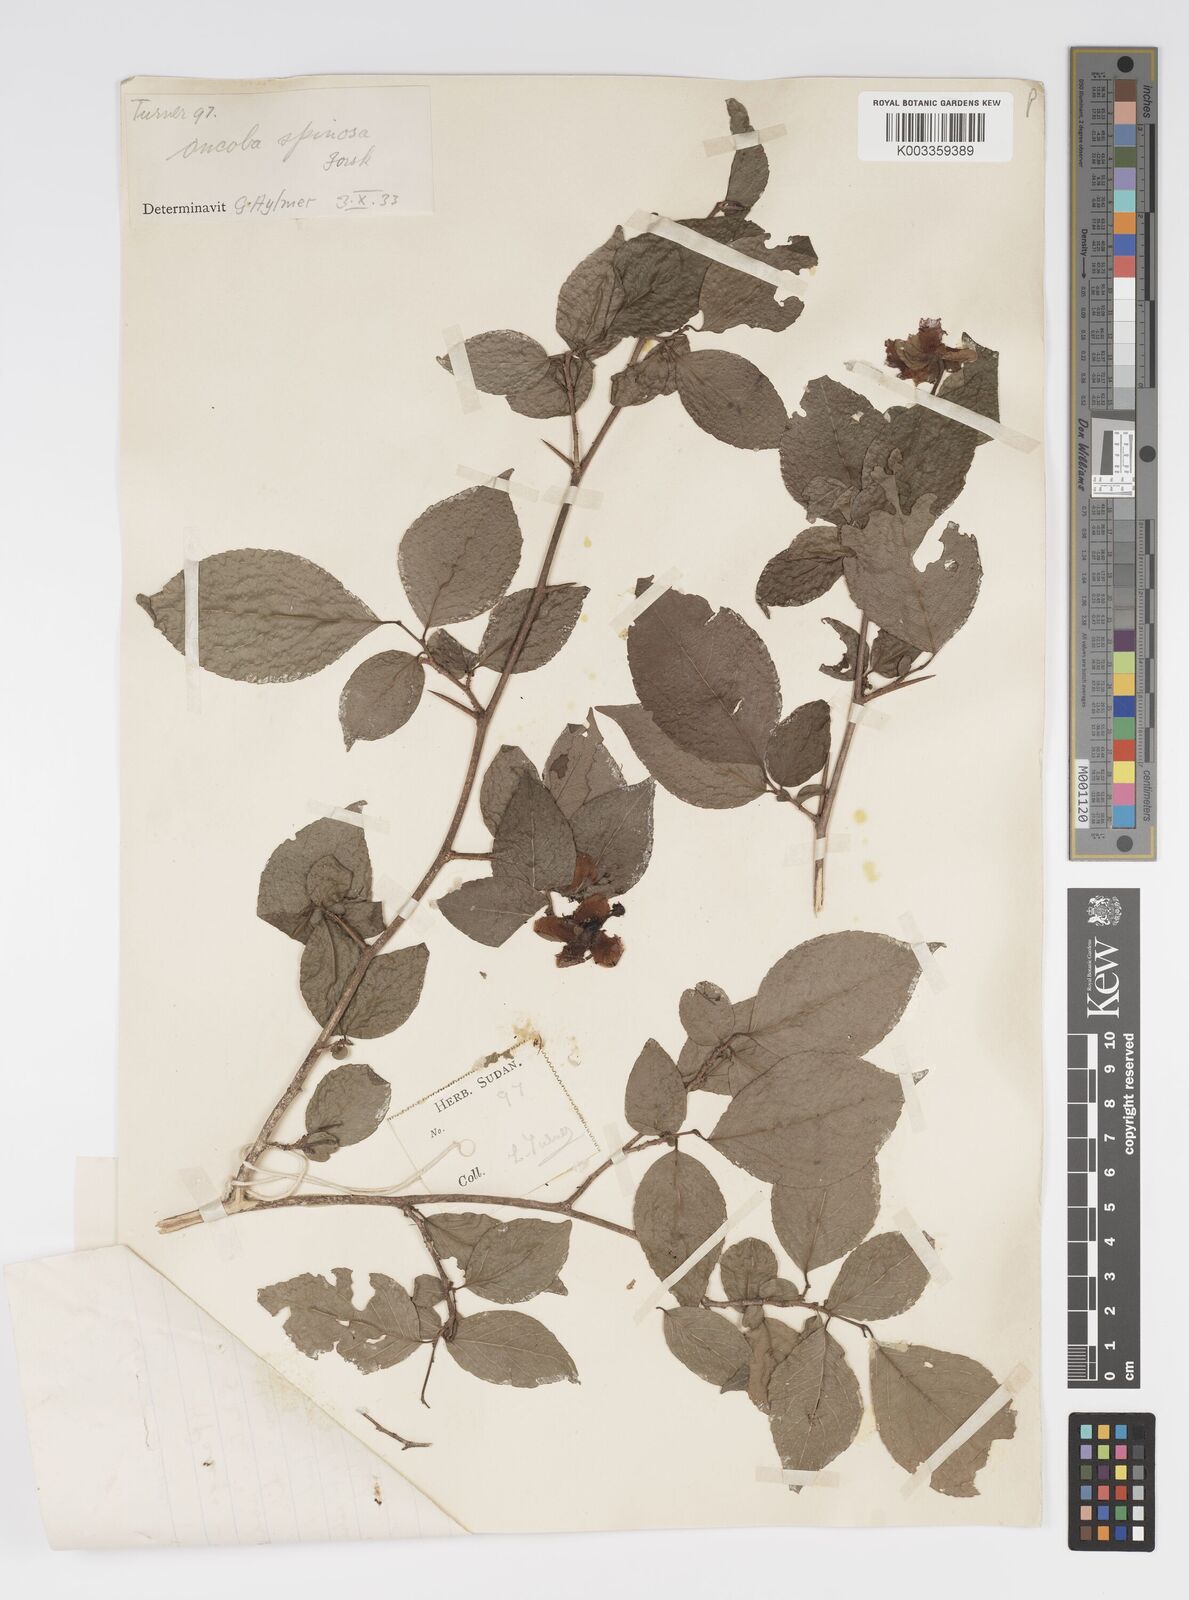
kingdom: Plantae
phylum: Tracheophyta
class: Magnoliopsida
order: Malpighiales
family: Salicaceae
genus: Oncoba
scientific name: Oncoba spinosa
